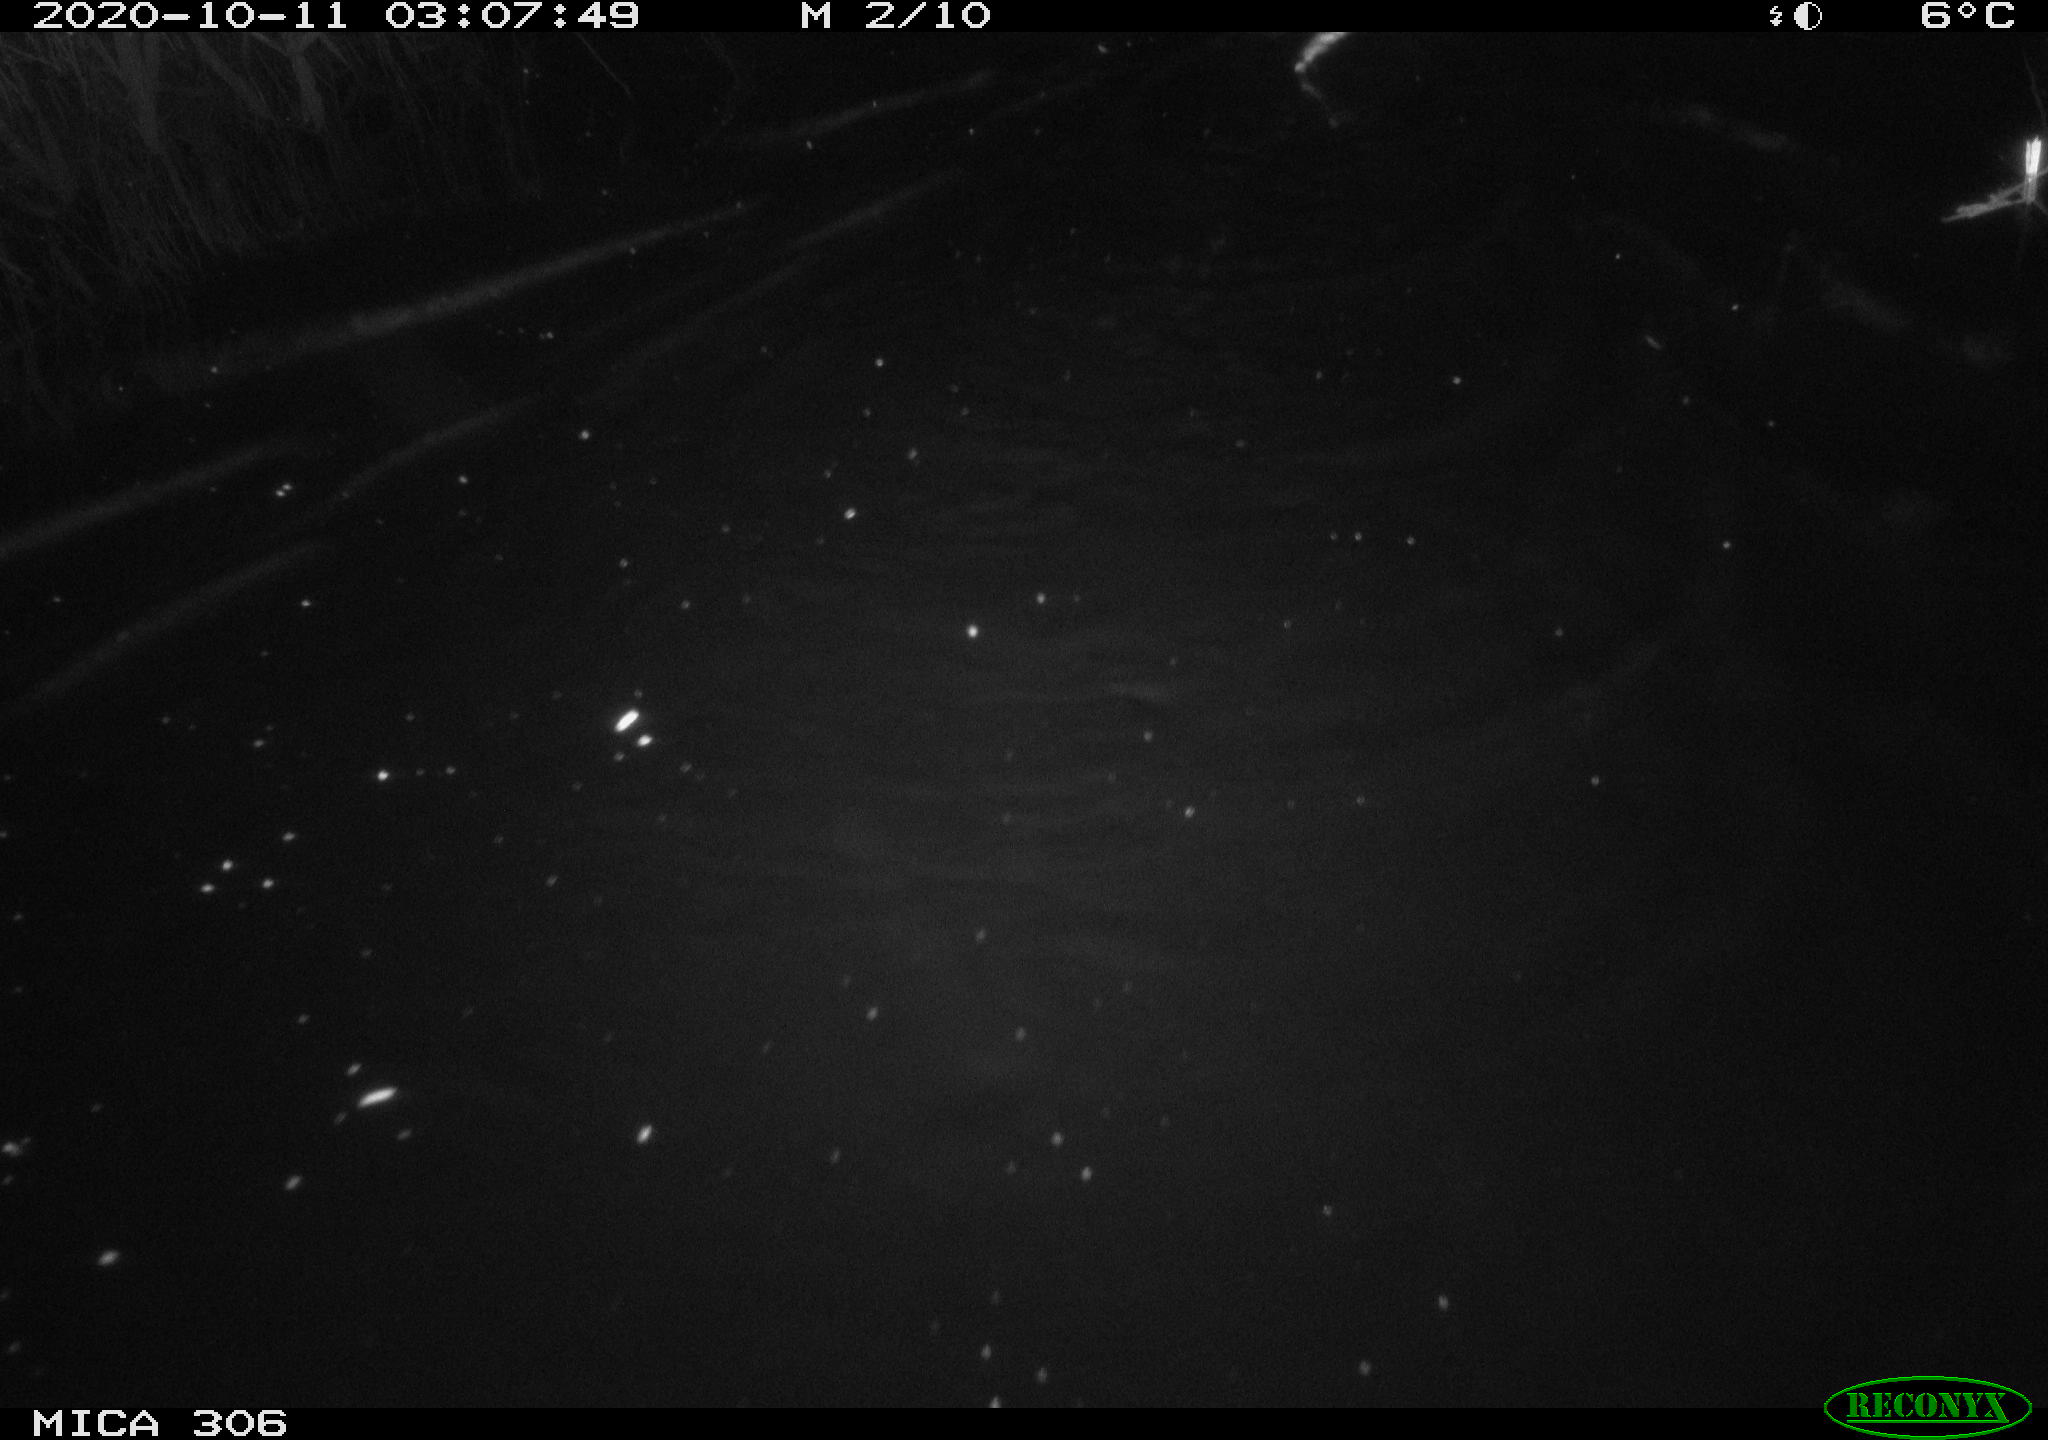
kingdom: Animalia
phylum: Chordata
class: Mammalia
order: Rodentia
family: Cricetidae
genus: Ondatra
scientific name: Ondatra zibethicus
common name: Muskrat
